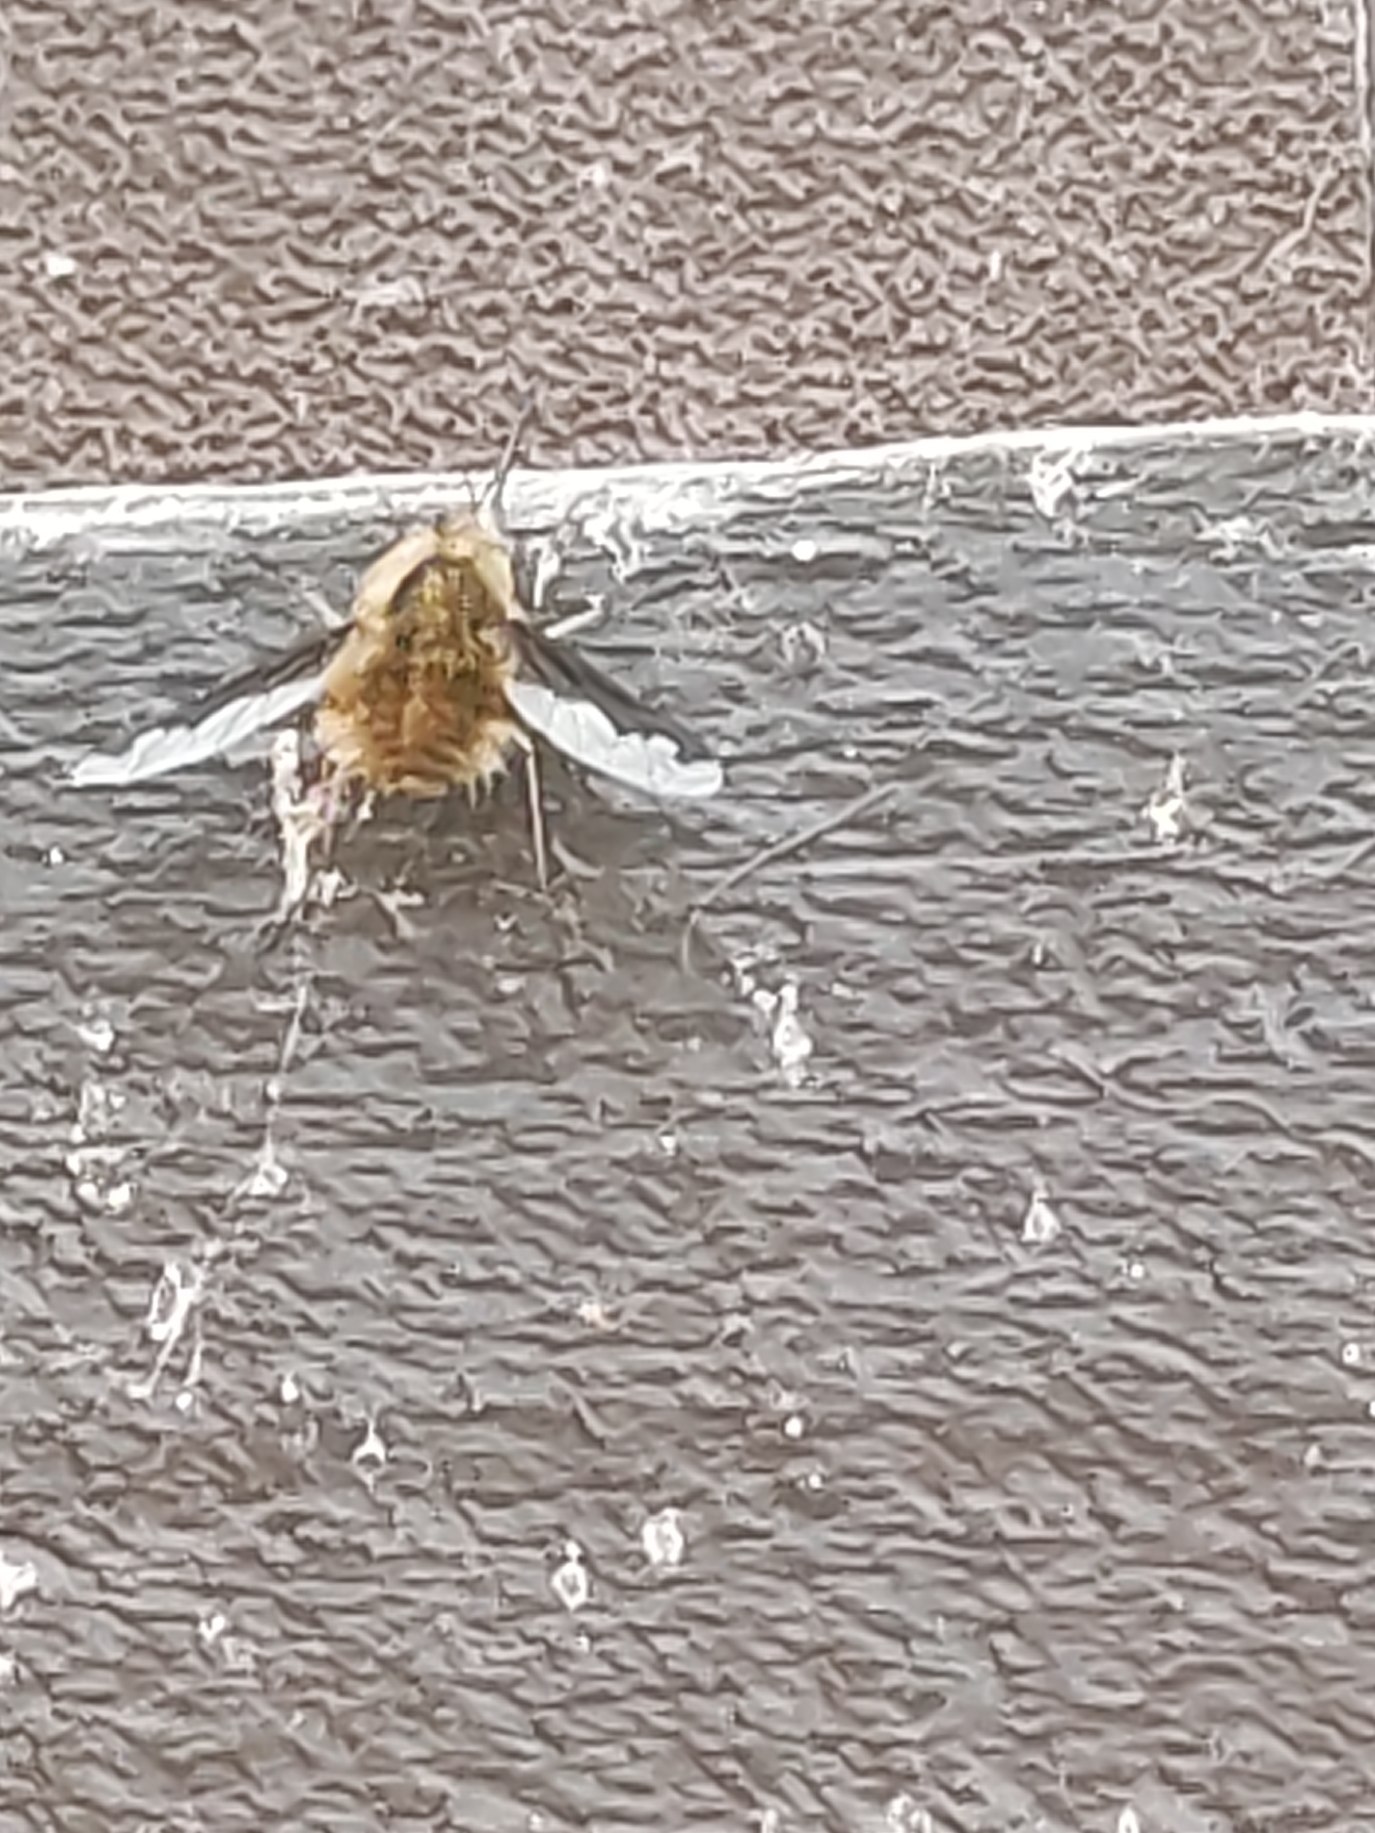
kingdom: Animalia
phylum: Arthropoda
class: Insecta
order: Diptera
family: Bombyliidae
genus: Bombylius
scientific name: Bombylius major
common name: Stor humleflue
